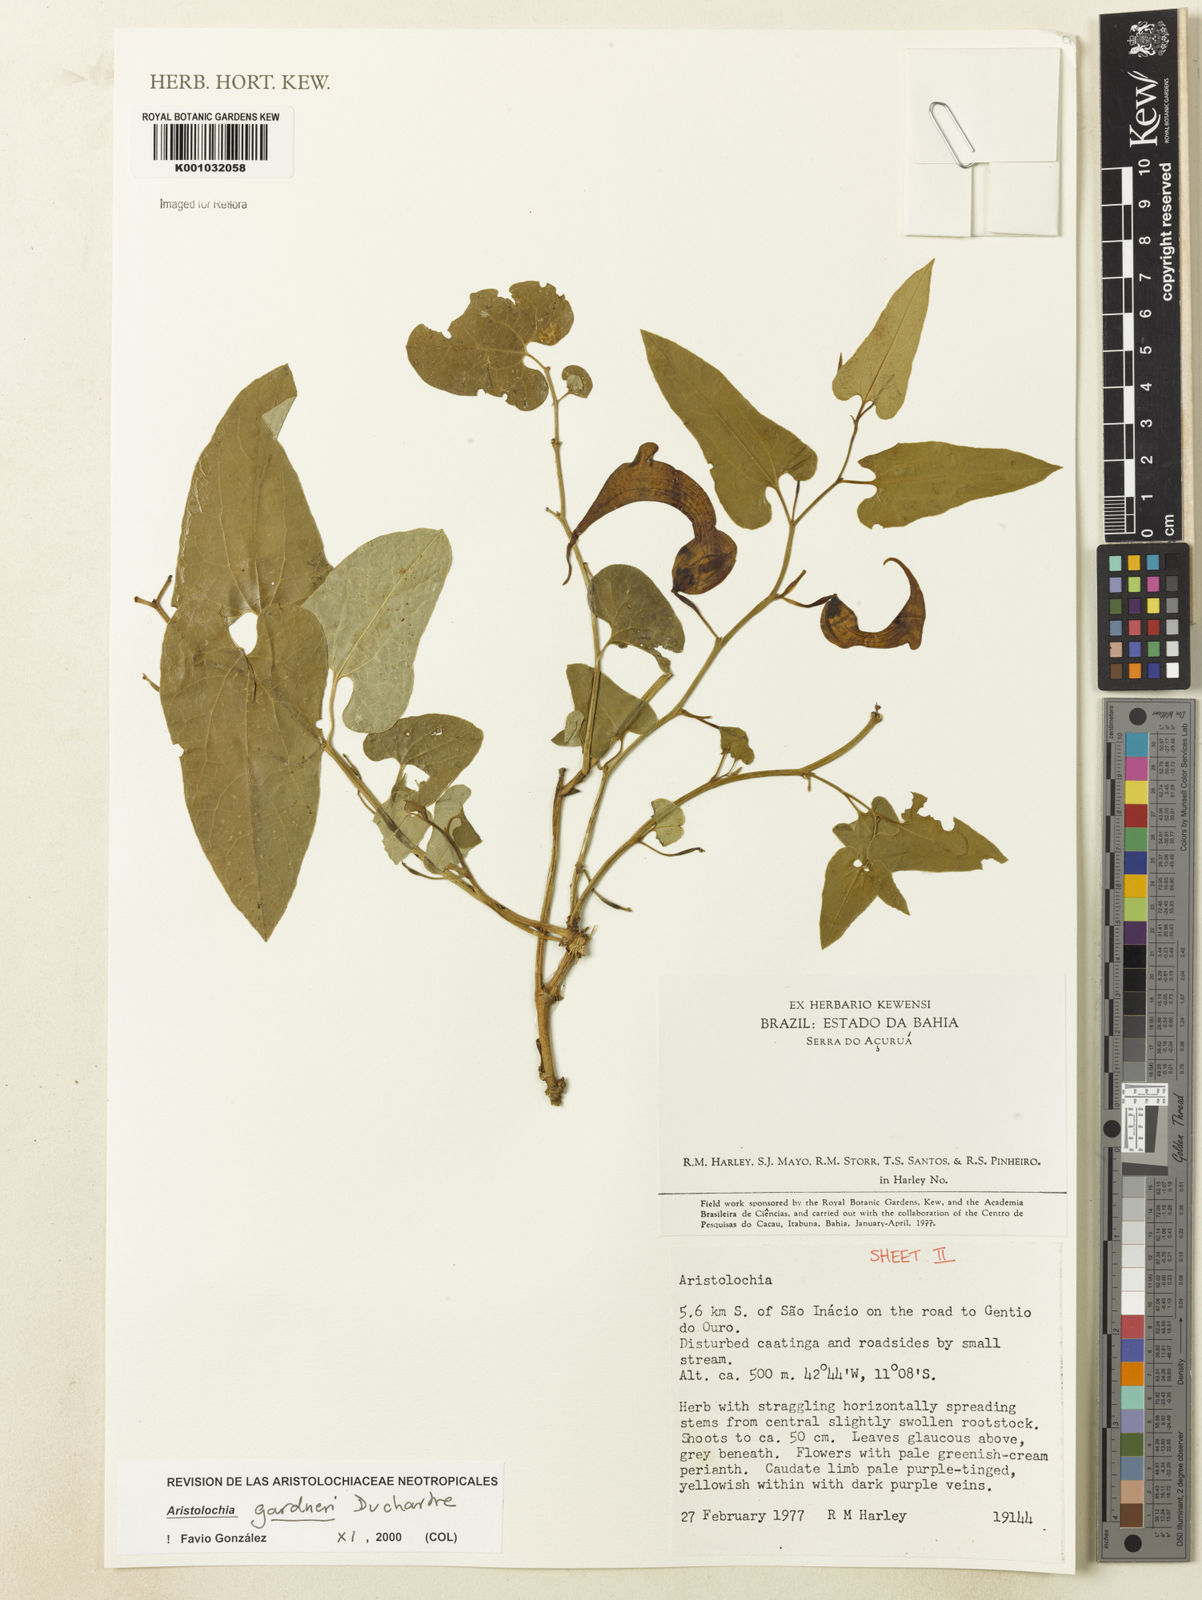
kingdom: Plantae
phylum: Tracheophyta
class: Magnoliopsida
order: Piperales
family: Aristolochiaceae
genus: Aristolochia
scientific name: Aristolochia gardneri
